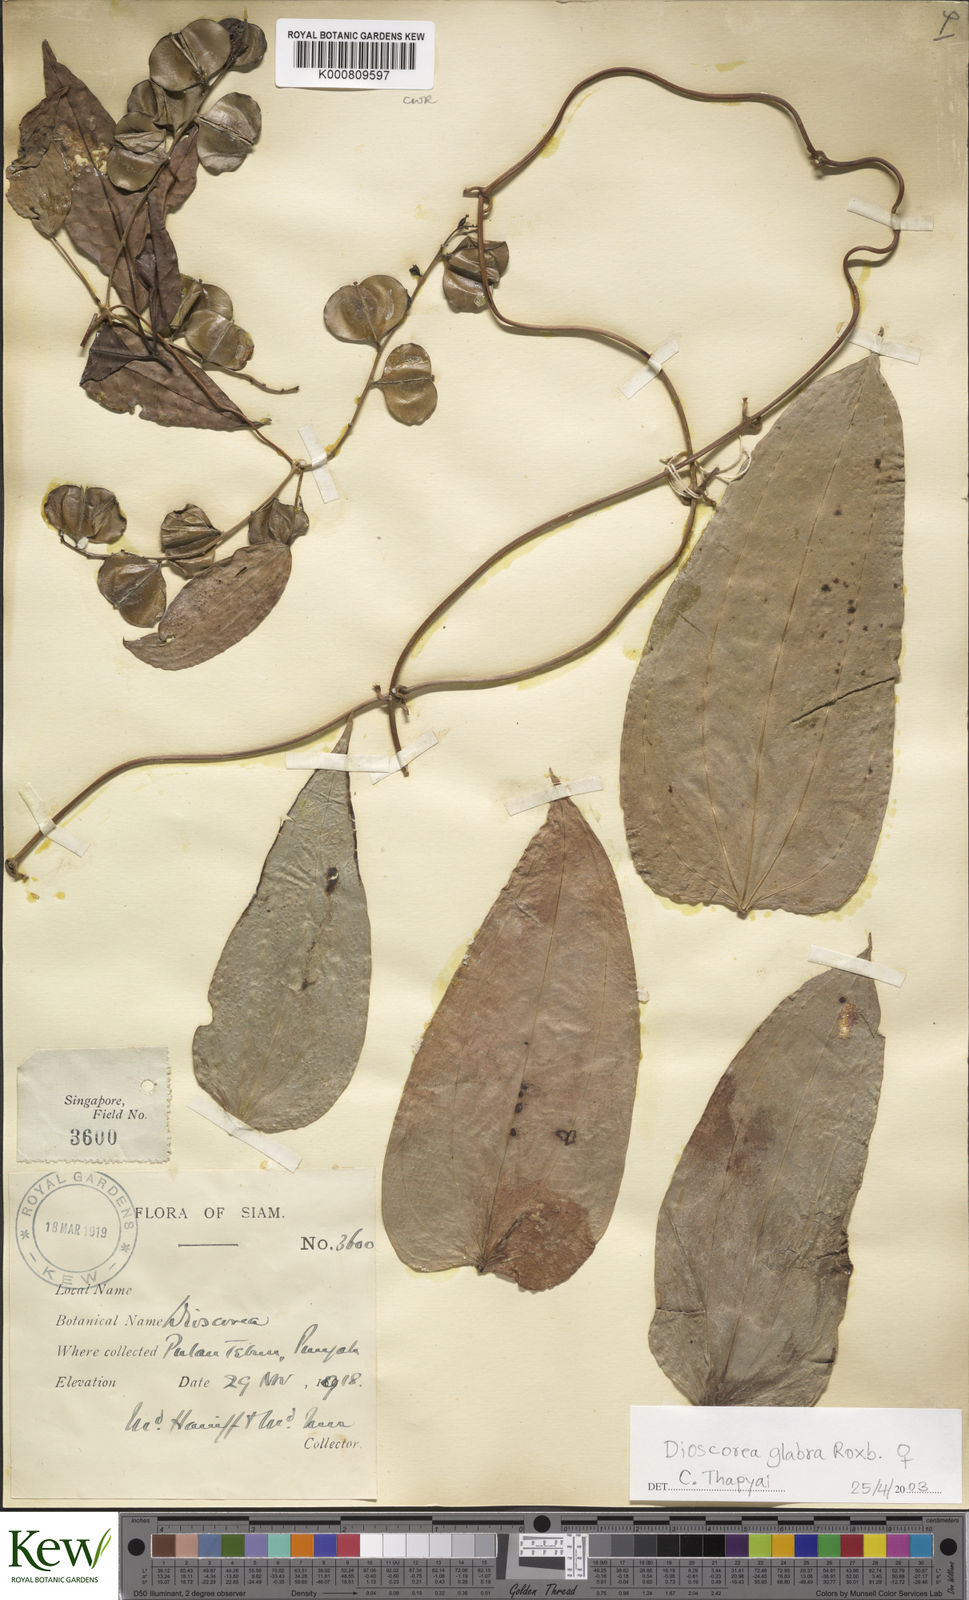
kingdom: Plantae
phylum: Tracheophyta
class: Liliopsida
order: Dioscoreales
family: Dioscoreaceae
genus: Dioscorea
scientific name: Dioscorea glabra
